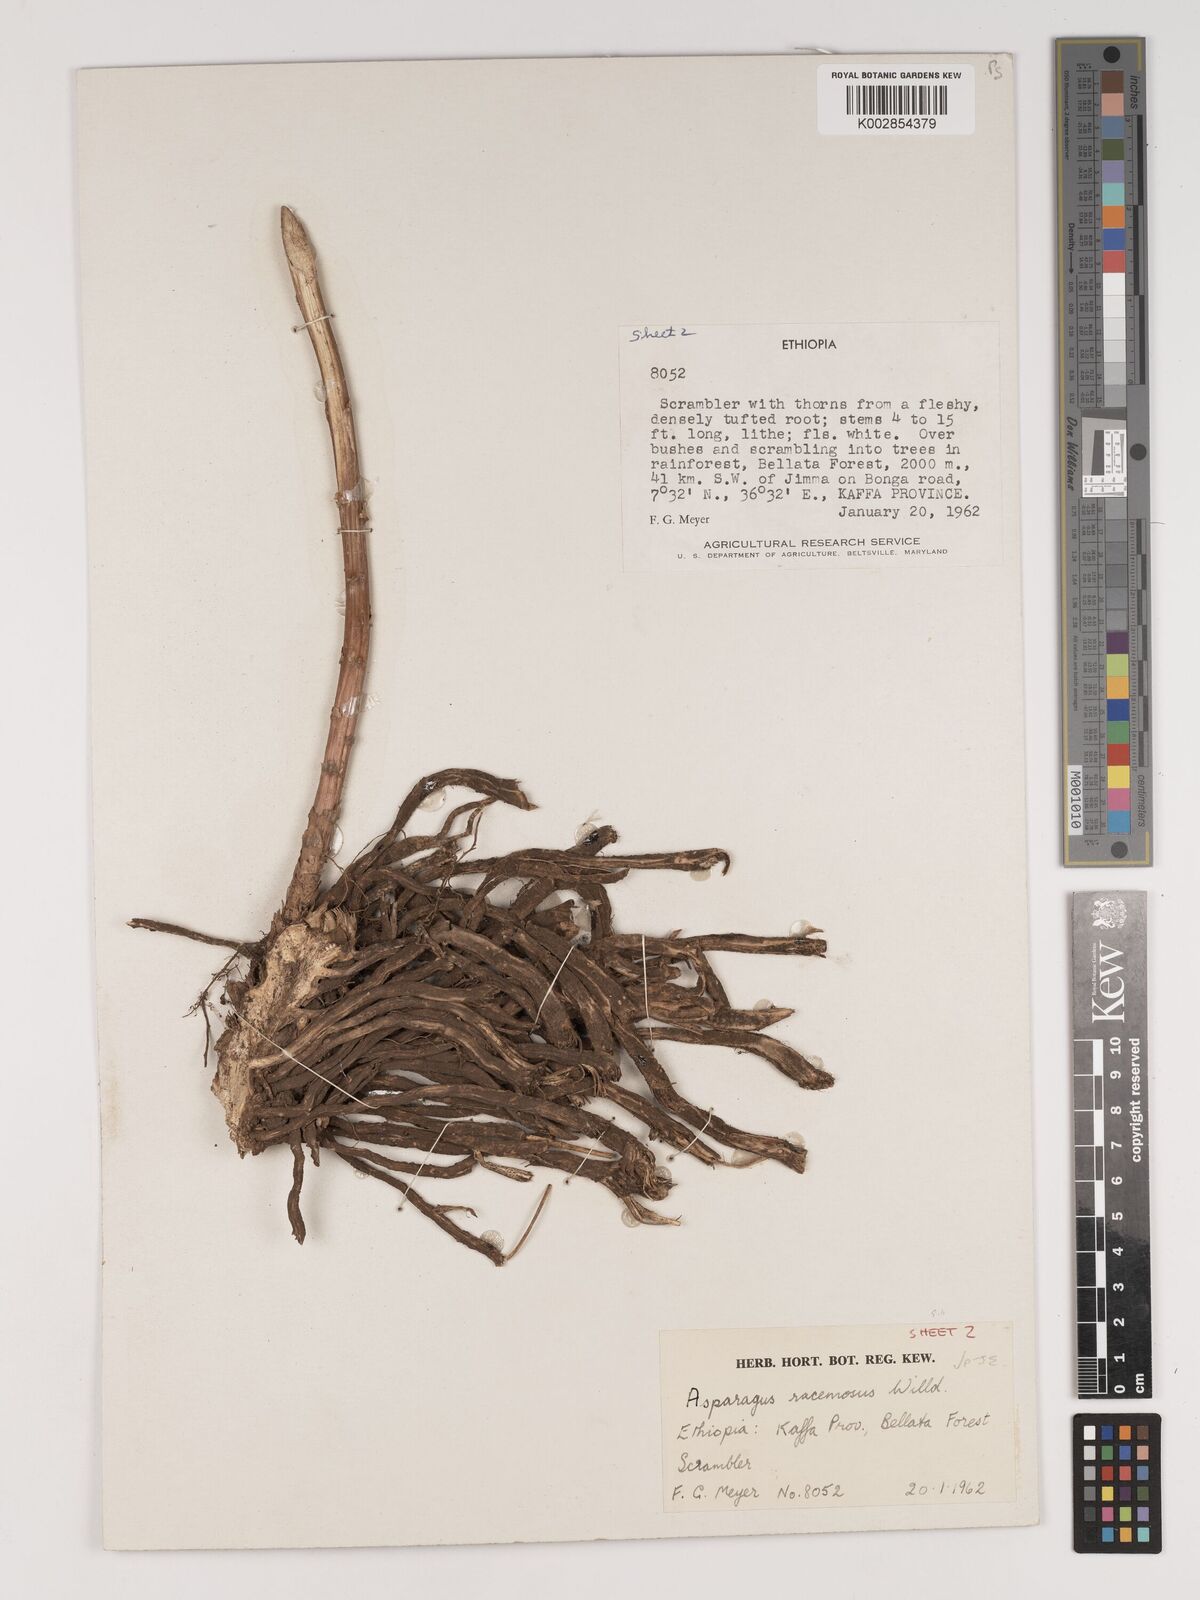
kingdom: Plantae
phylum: Tracheophyta
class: Liliopsida
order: Asparagales
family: Asparagaceae
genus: Asparagus
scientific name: Asparagus racemosus
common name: Asparagus-fern
